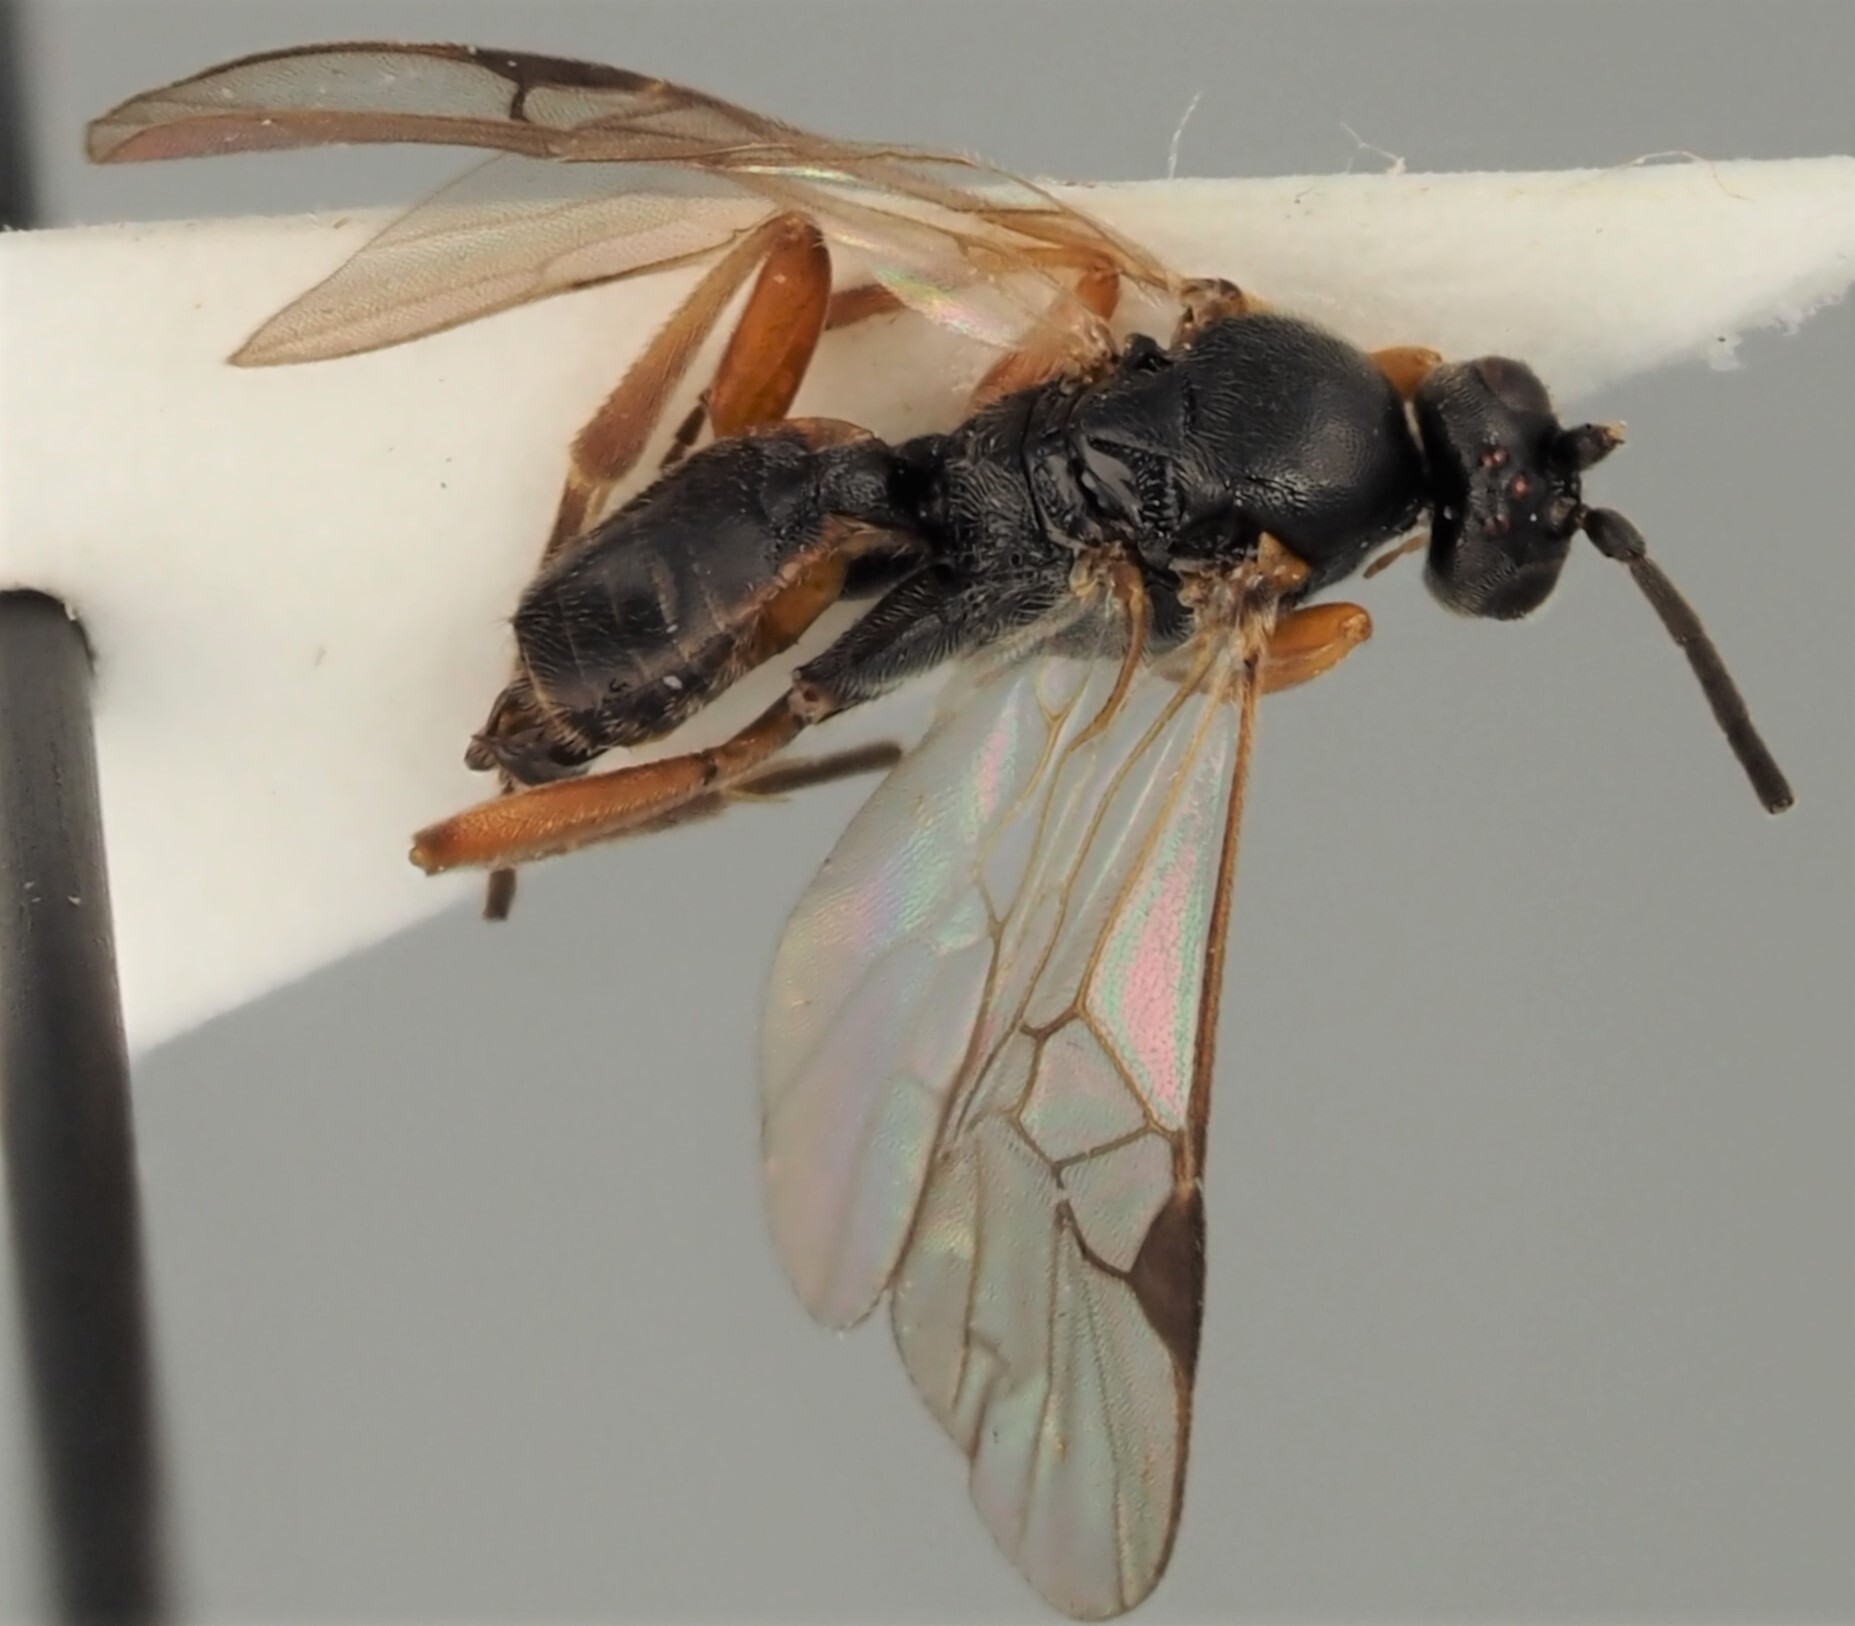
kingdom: Animalia
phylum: Arthropoda
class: Insecta
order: Hymenoptera
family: Braconidae
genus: Sathon
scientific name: Sathon falcatus
